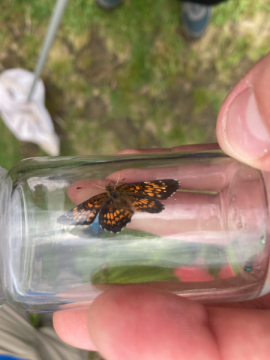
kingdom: Animalia
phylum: Arthropoda
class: Insecta
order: Lepidoptera
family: Nymphalidae
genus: Chlosyne
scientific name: Chlosyne harrisii
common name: Harris's Checkerspot
